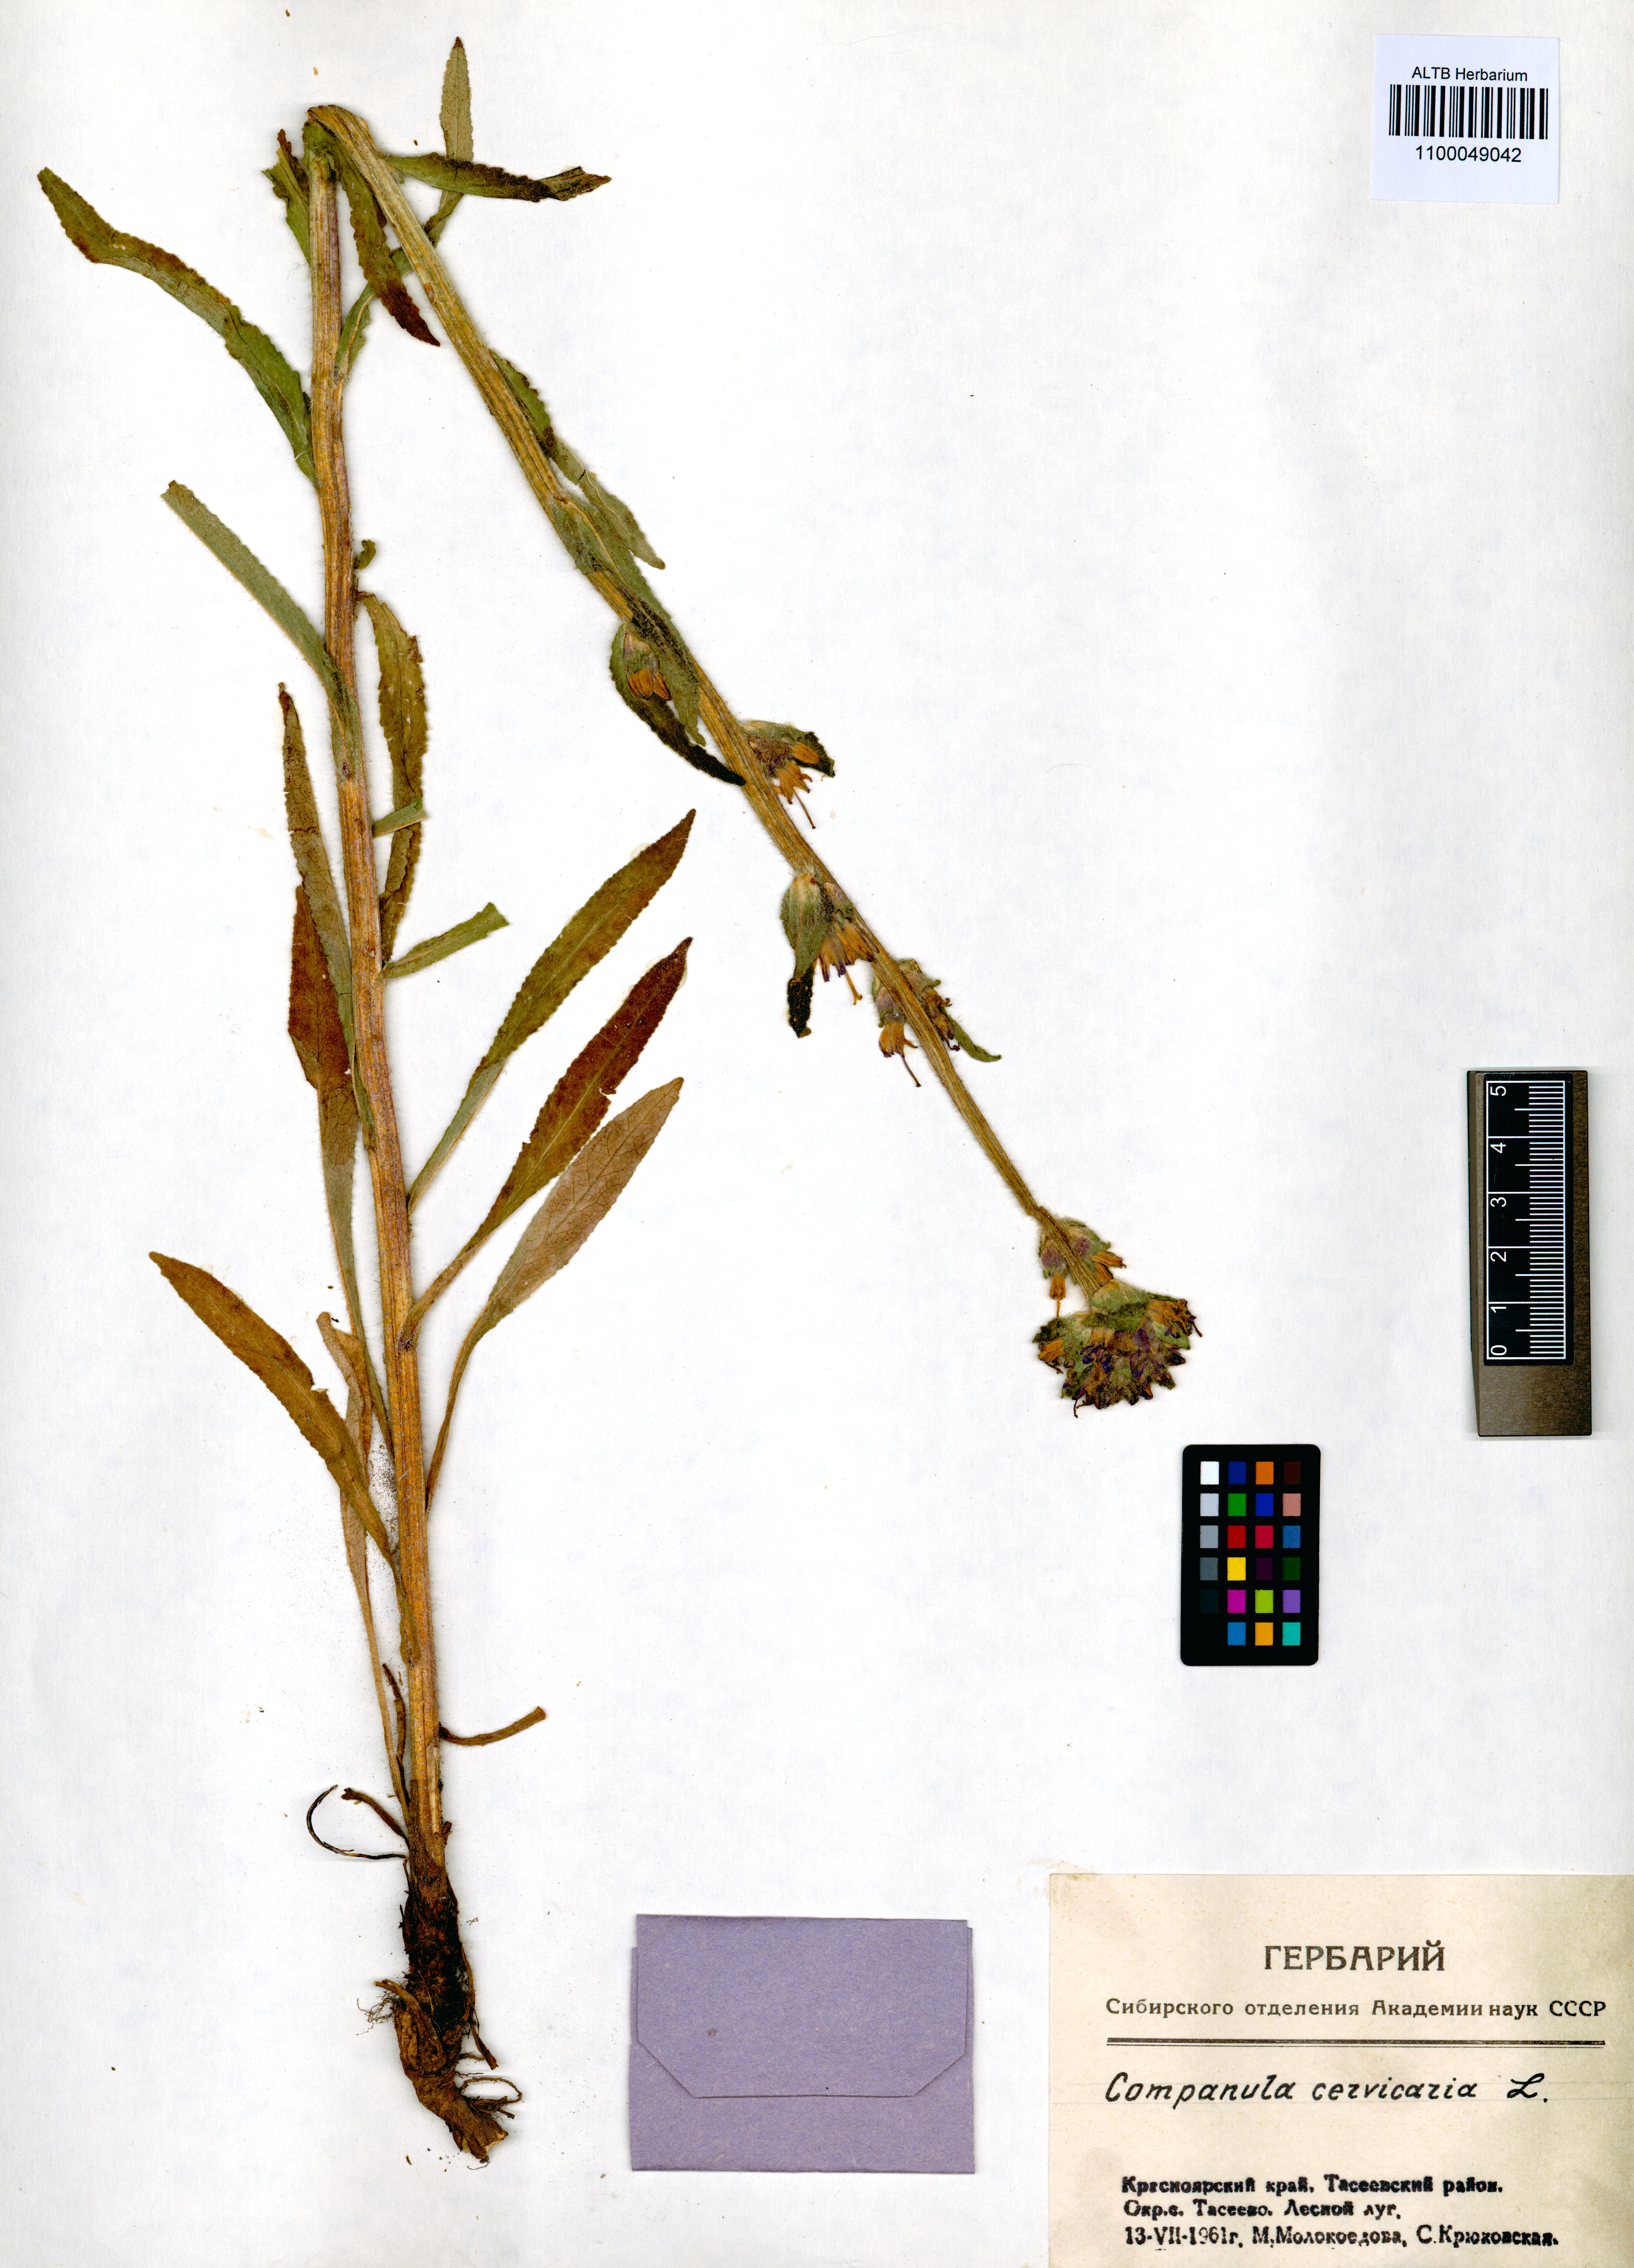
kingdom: Plantae
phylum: Tracheophyta
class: Magnoliopsida
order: Asterales
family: Campanulaceae
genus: Campanula
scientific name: Campanula cervicaria
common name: Bristly bellflower
